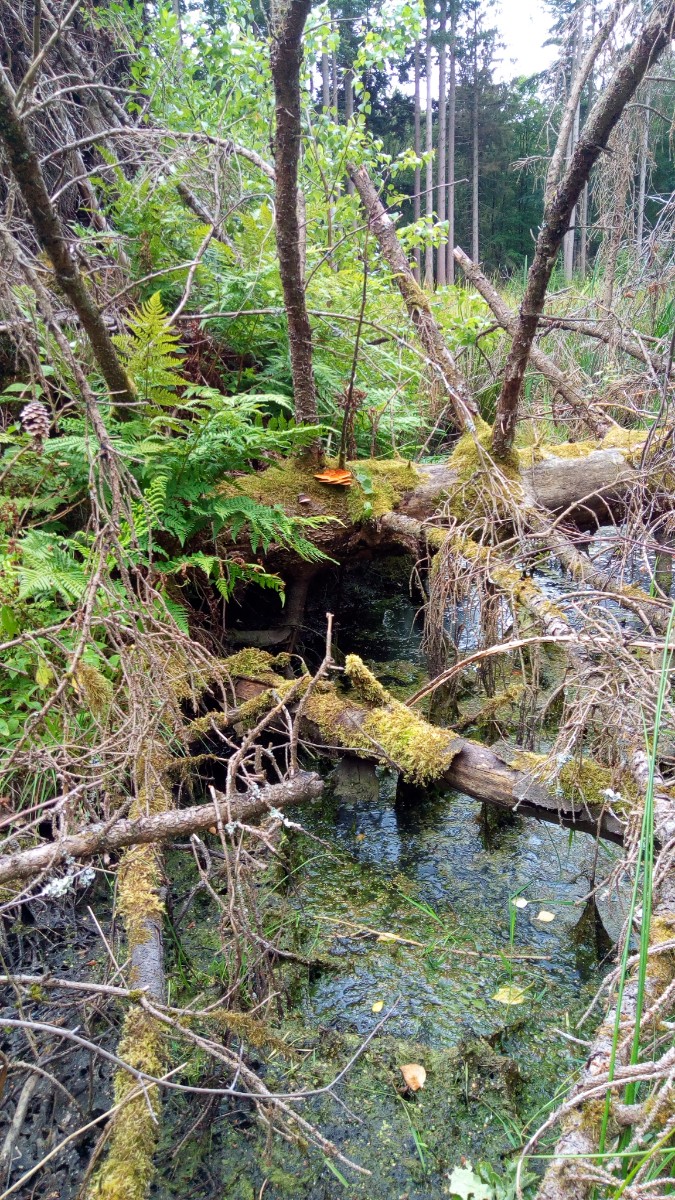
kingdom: Fungi
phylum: Basidiomycota
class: Agaricomycetes
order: Polyporales
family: Pycnoporellaceae
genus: Pycnoporellus
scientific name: Pycnoporellus fulgens
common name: flammeporesvamp
